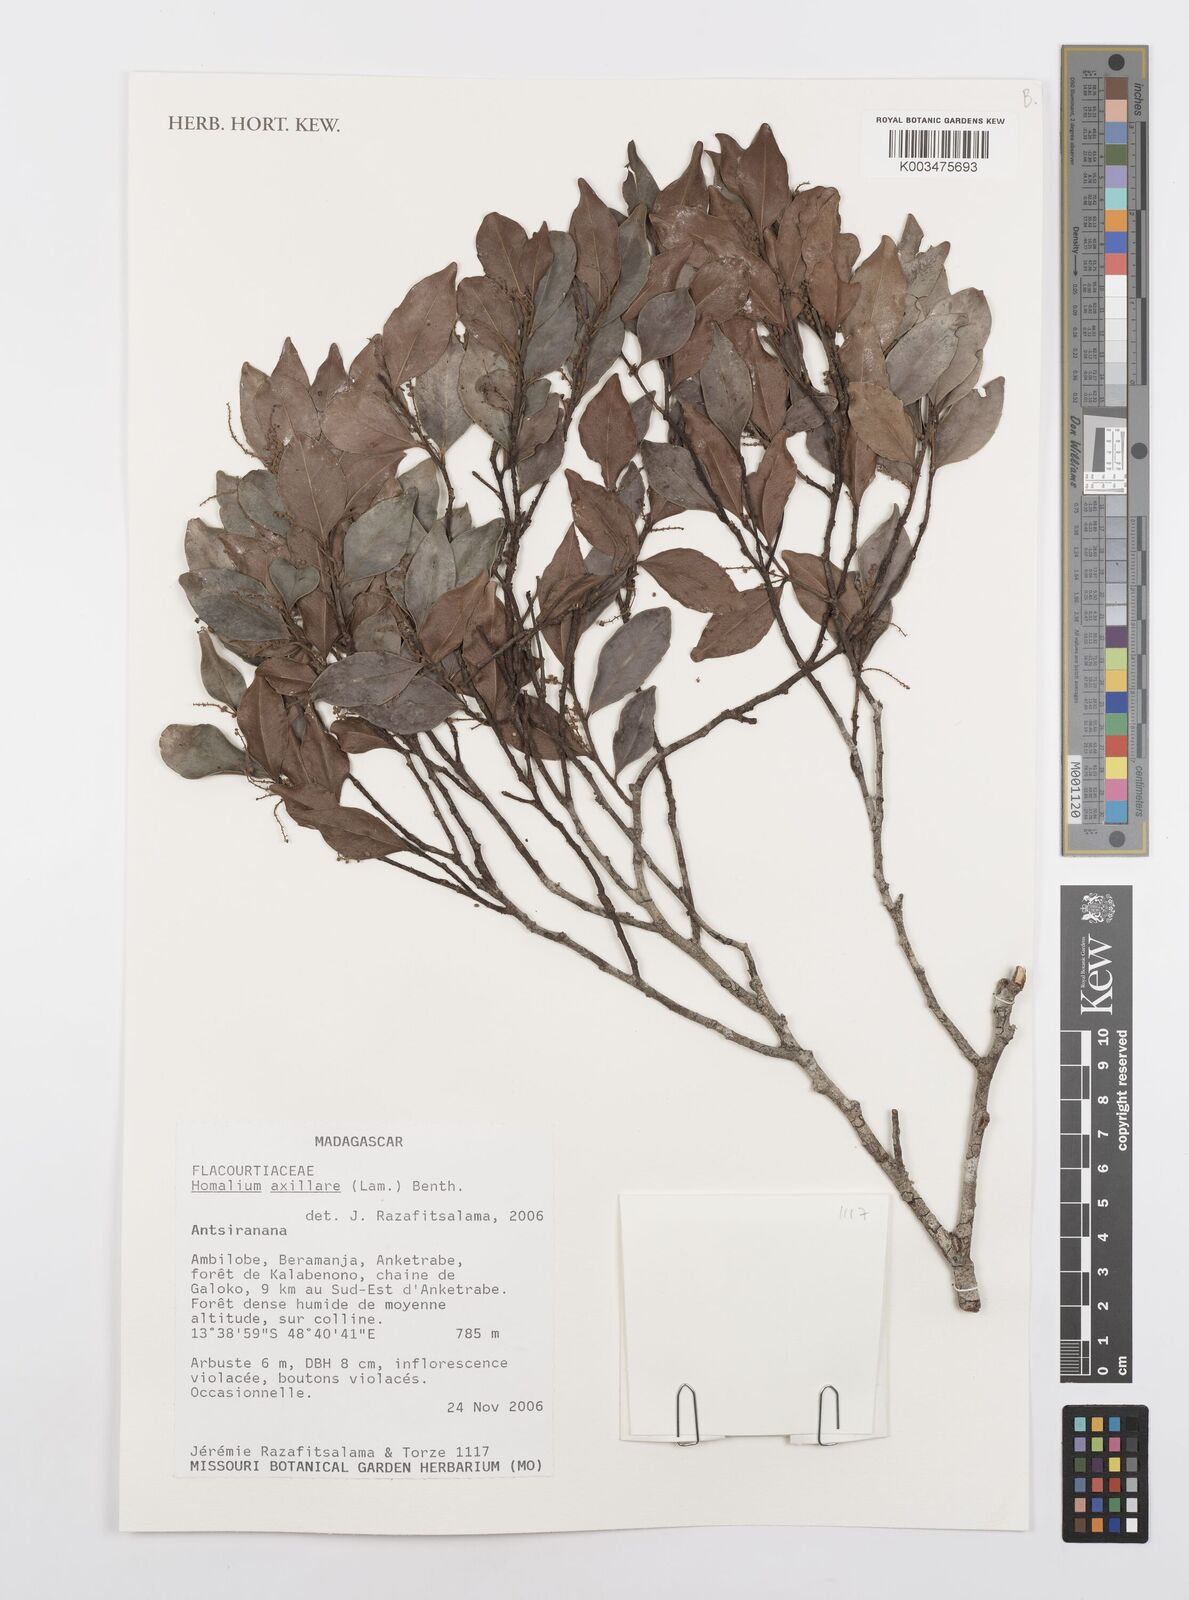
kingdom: Plantae
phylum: Tracheophyta
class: Magnoliopsida
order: Malpighiales
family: Salicaceae
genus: Homalium
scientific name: Homalium axillare
